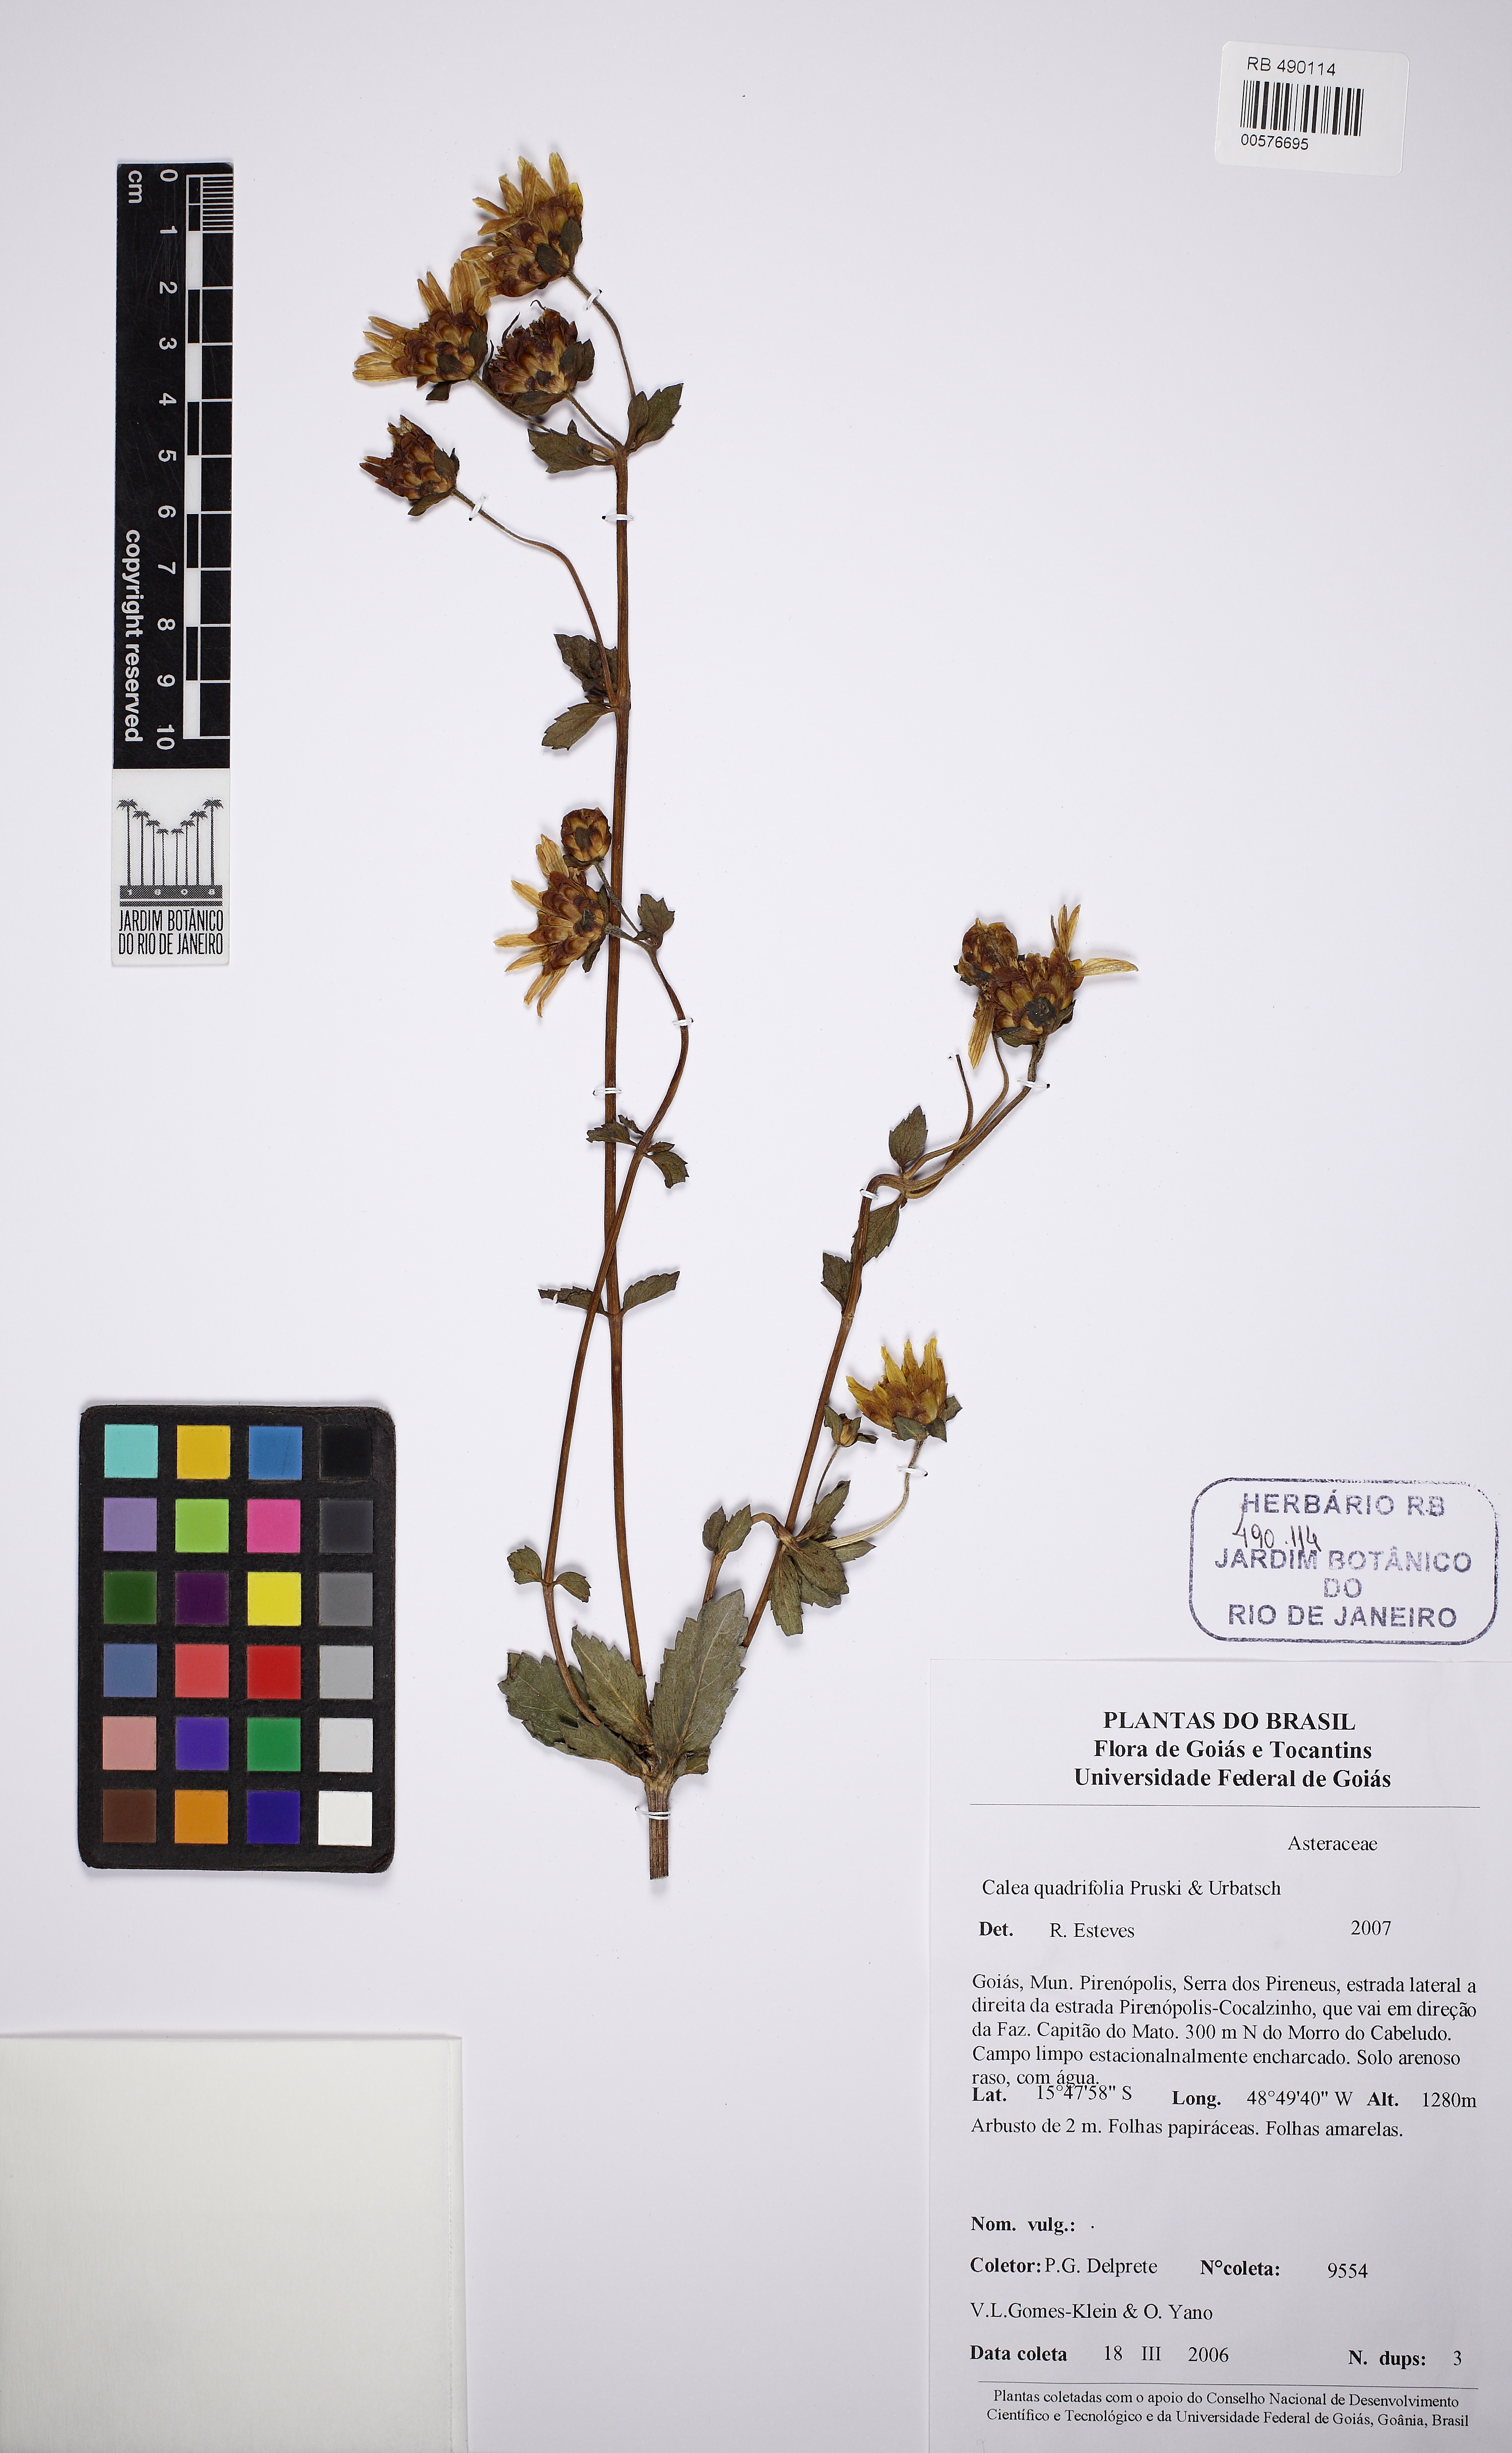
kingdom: Plantae
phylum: Tracheophyta
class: Magnoliopsida
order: Asterales
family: Asteraceae
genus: Calea
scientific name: Calea quadrifolia
